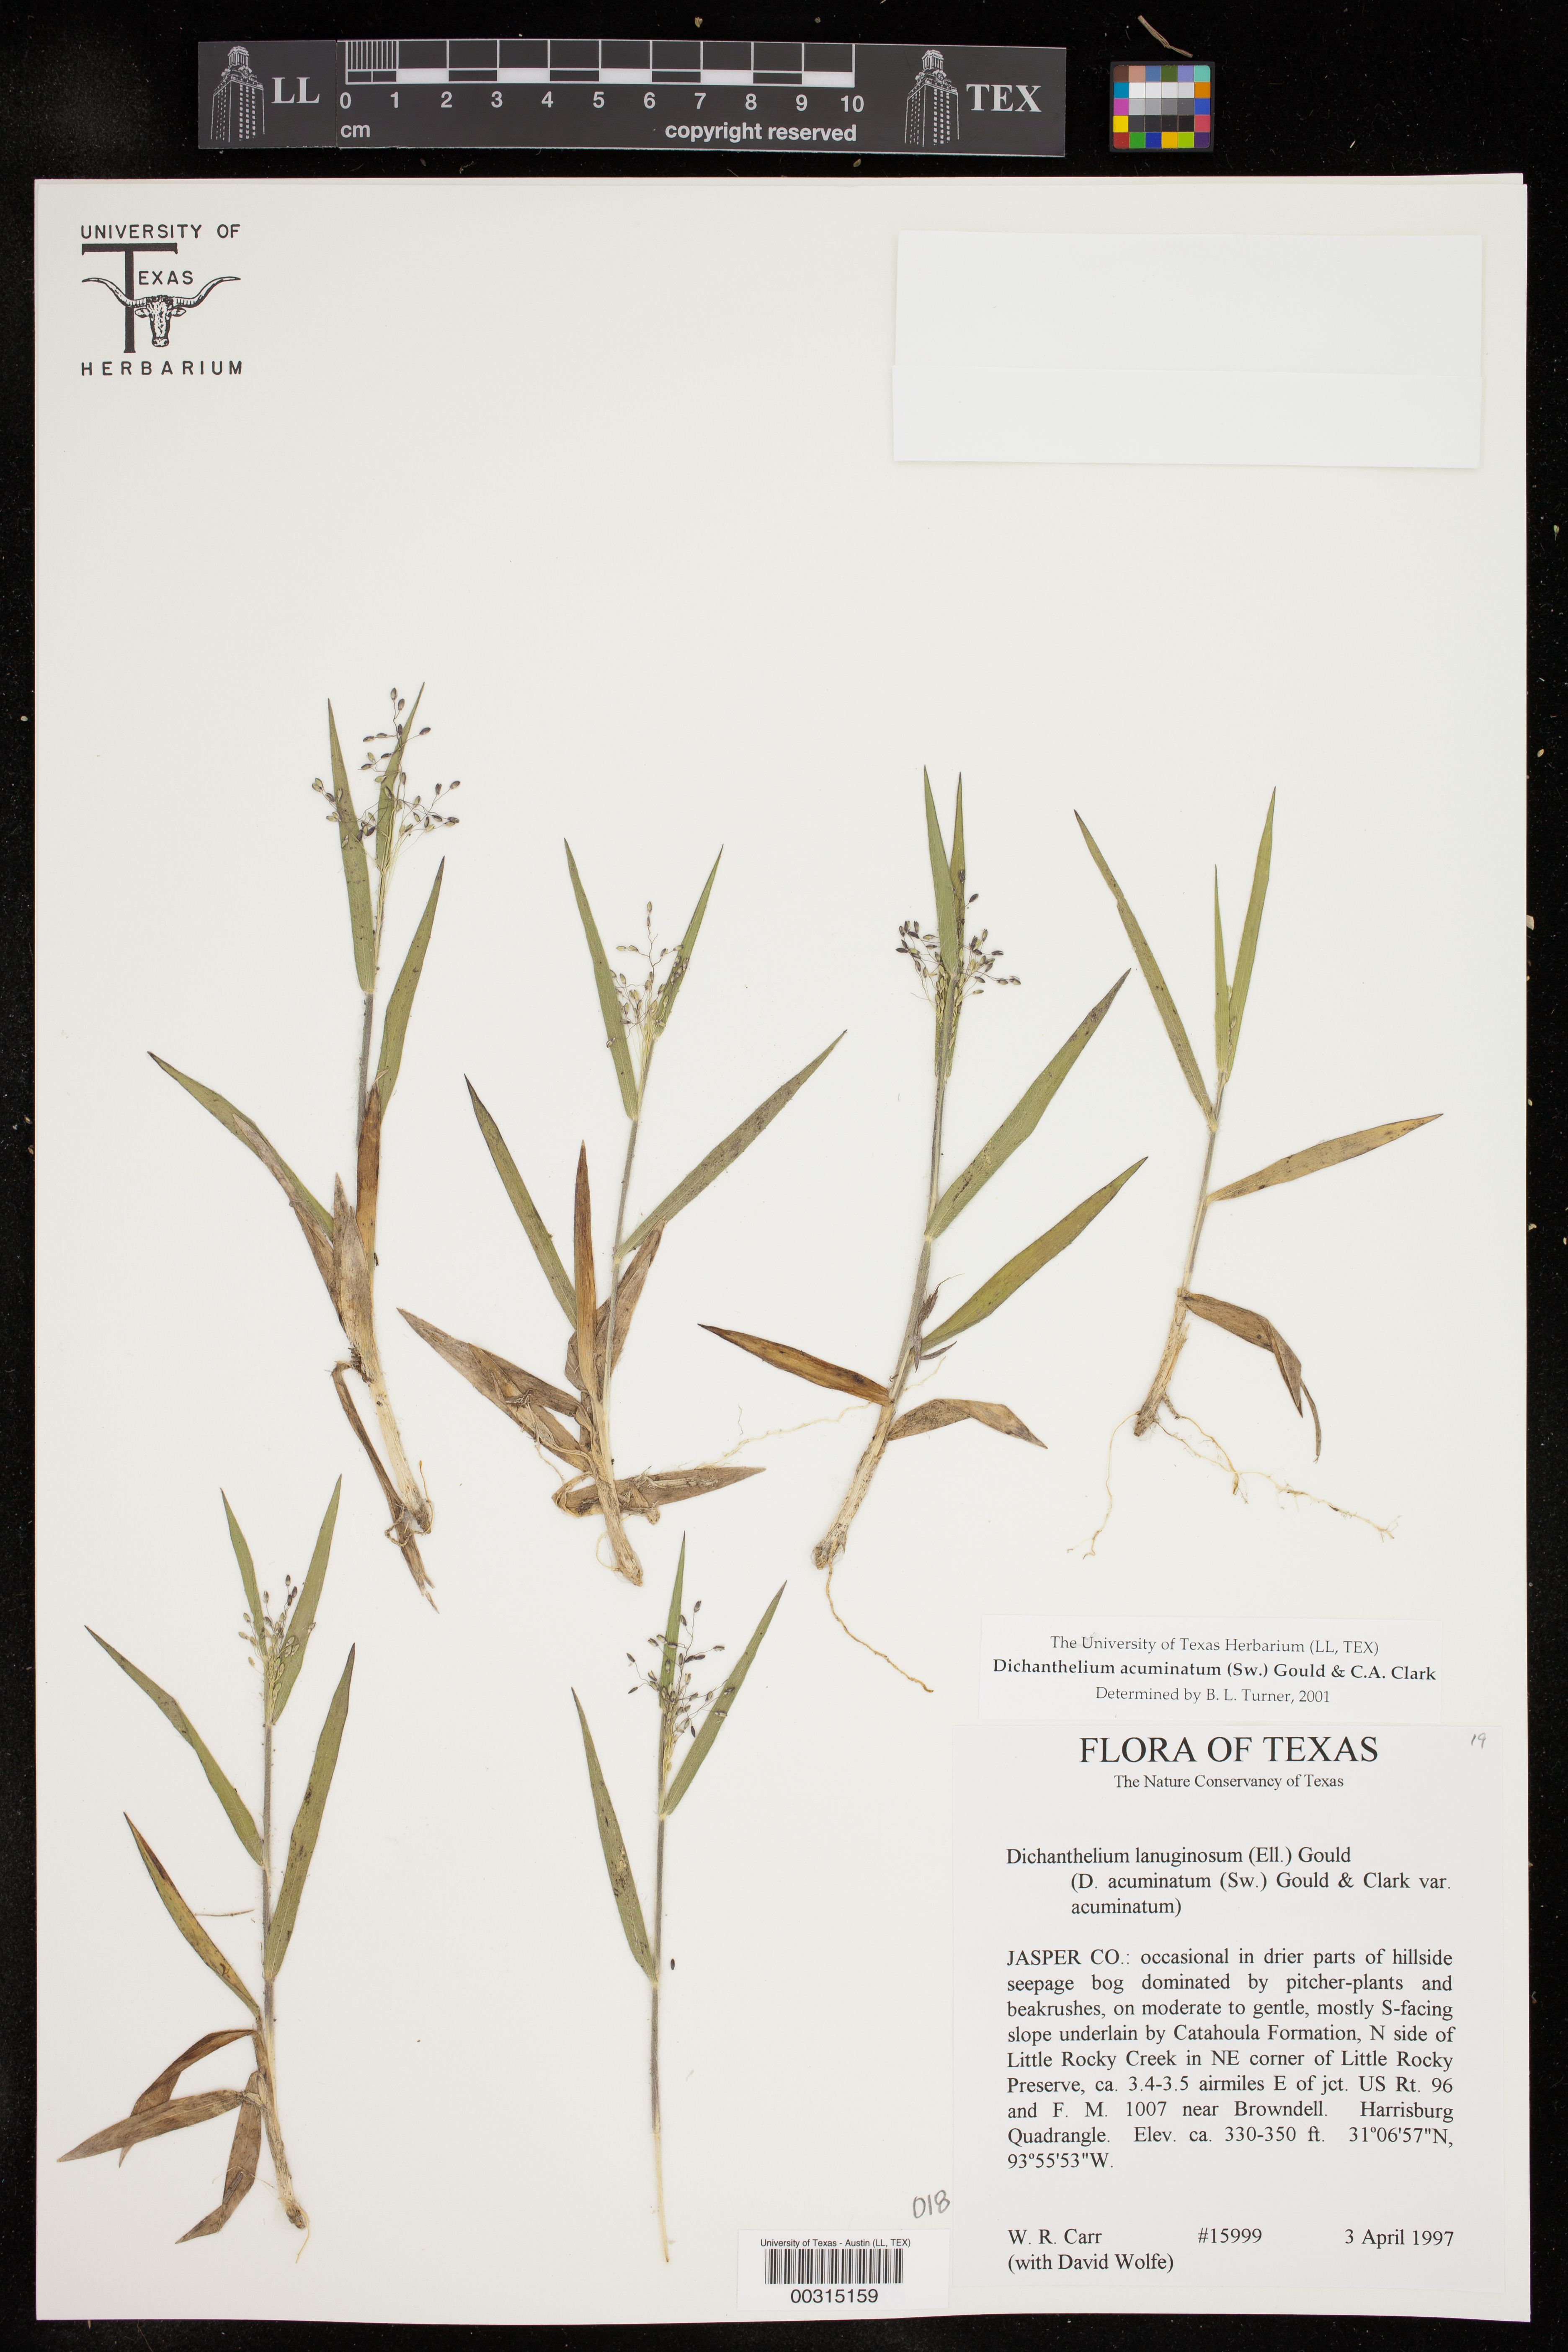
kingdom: Plantae
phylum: Tracheophyta
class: Liliopsida
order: Poales
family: Poaceae
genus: Dichanthelium
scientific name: Dichanthelium acuminatum
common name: Hairy panic grass
